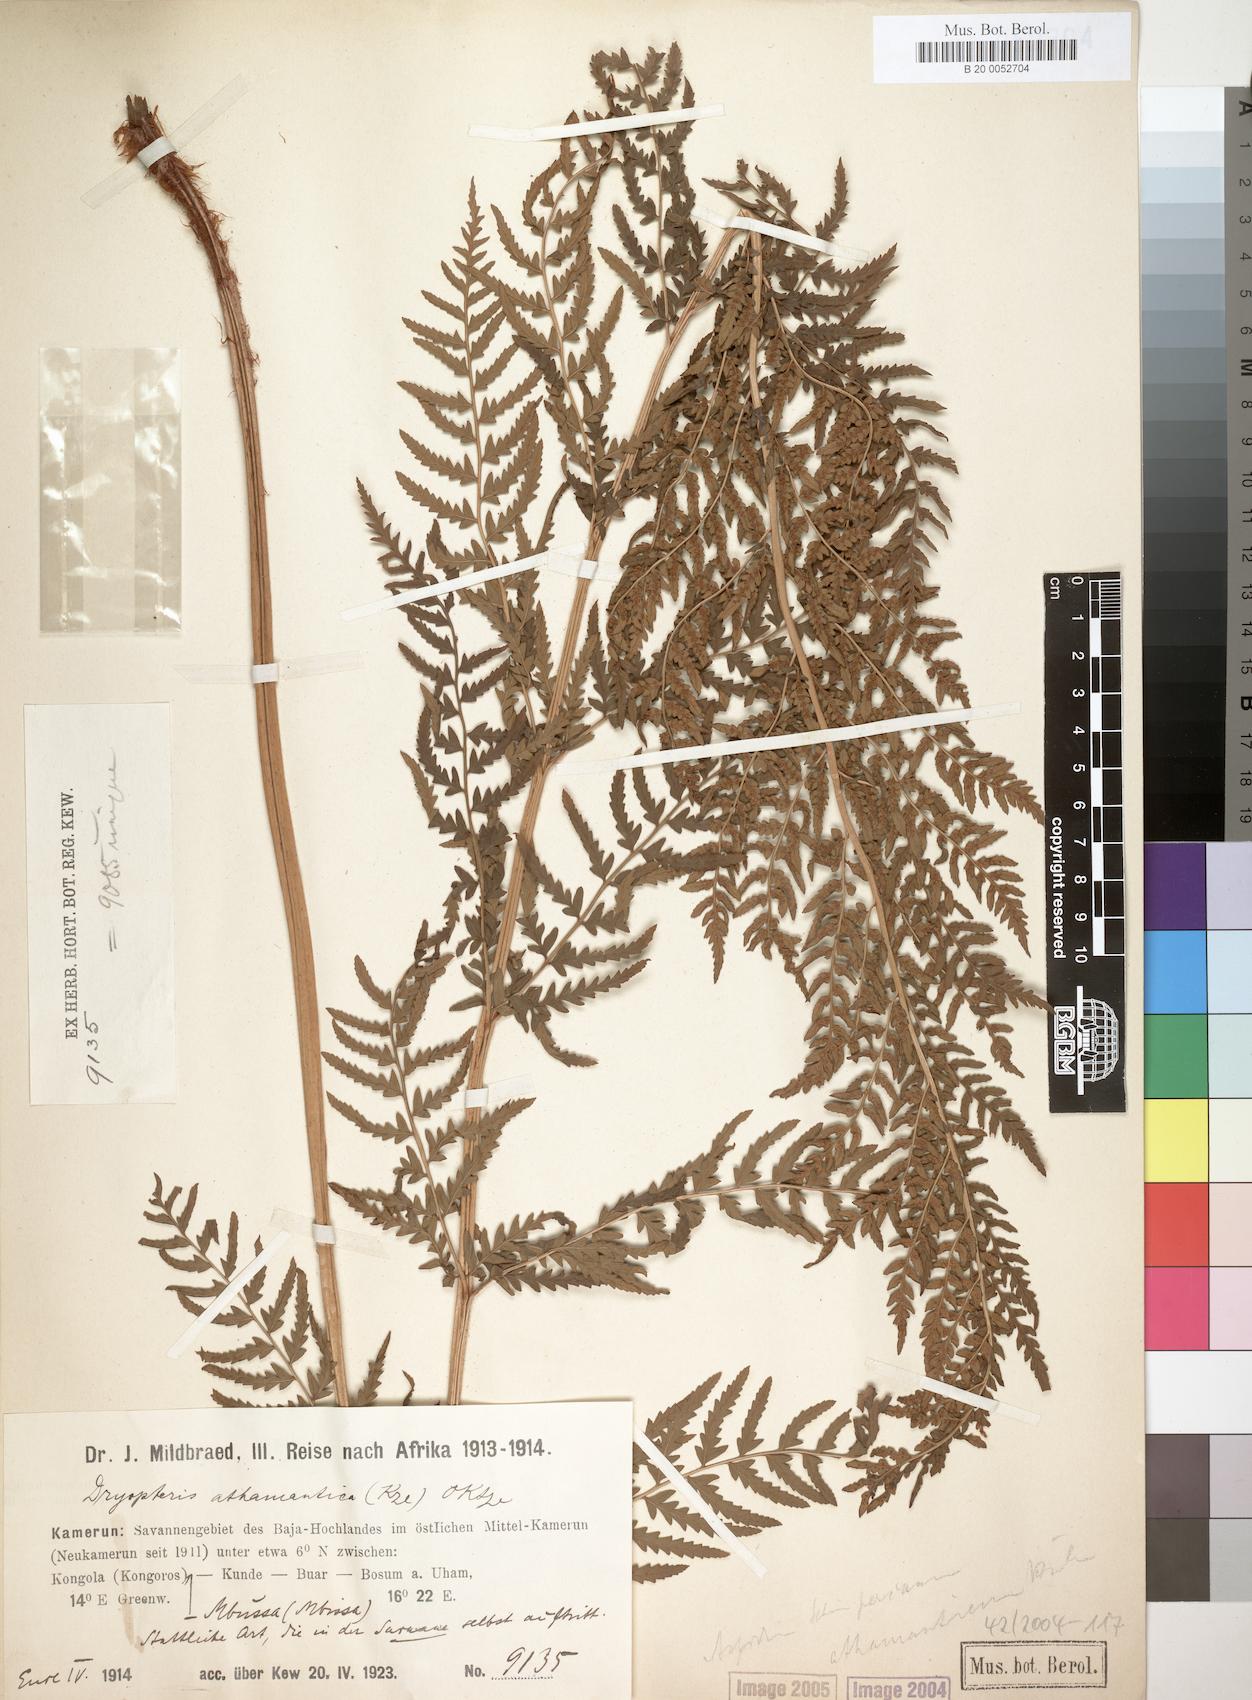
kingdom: Plantae
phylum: Tracheophyta
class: Polypodiopsida
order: Polypodiales
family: Dryopteridaceae
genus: Dryopteris
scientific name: Dryopteris athamantica
